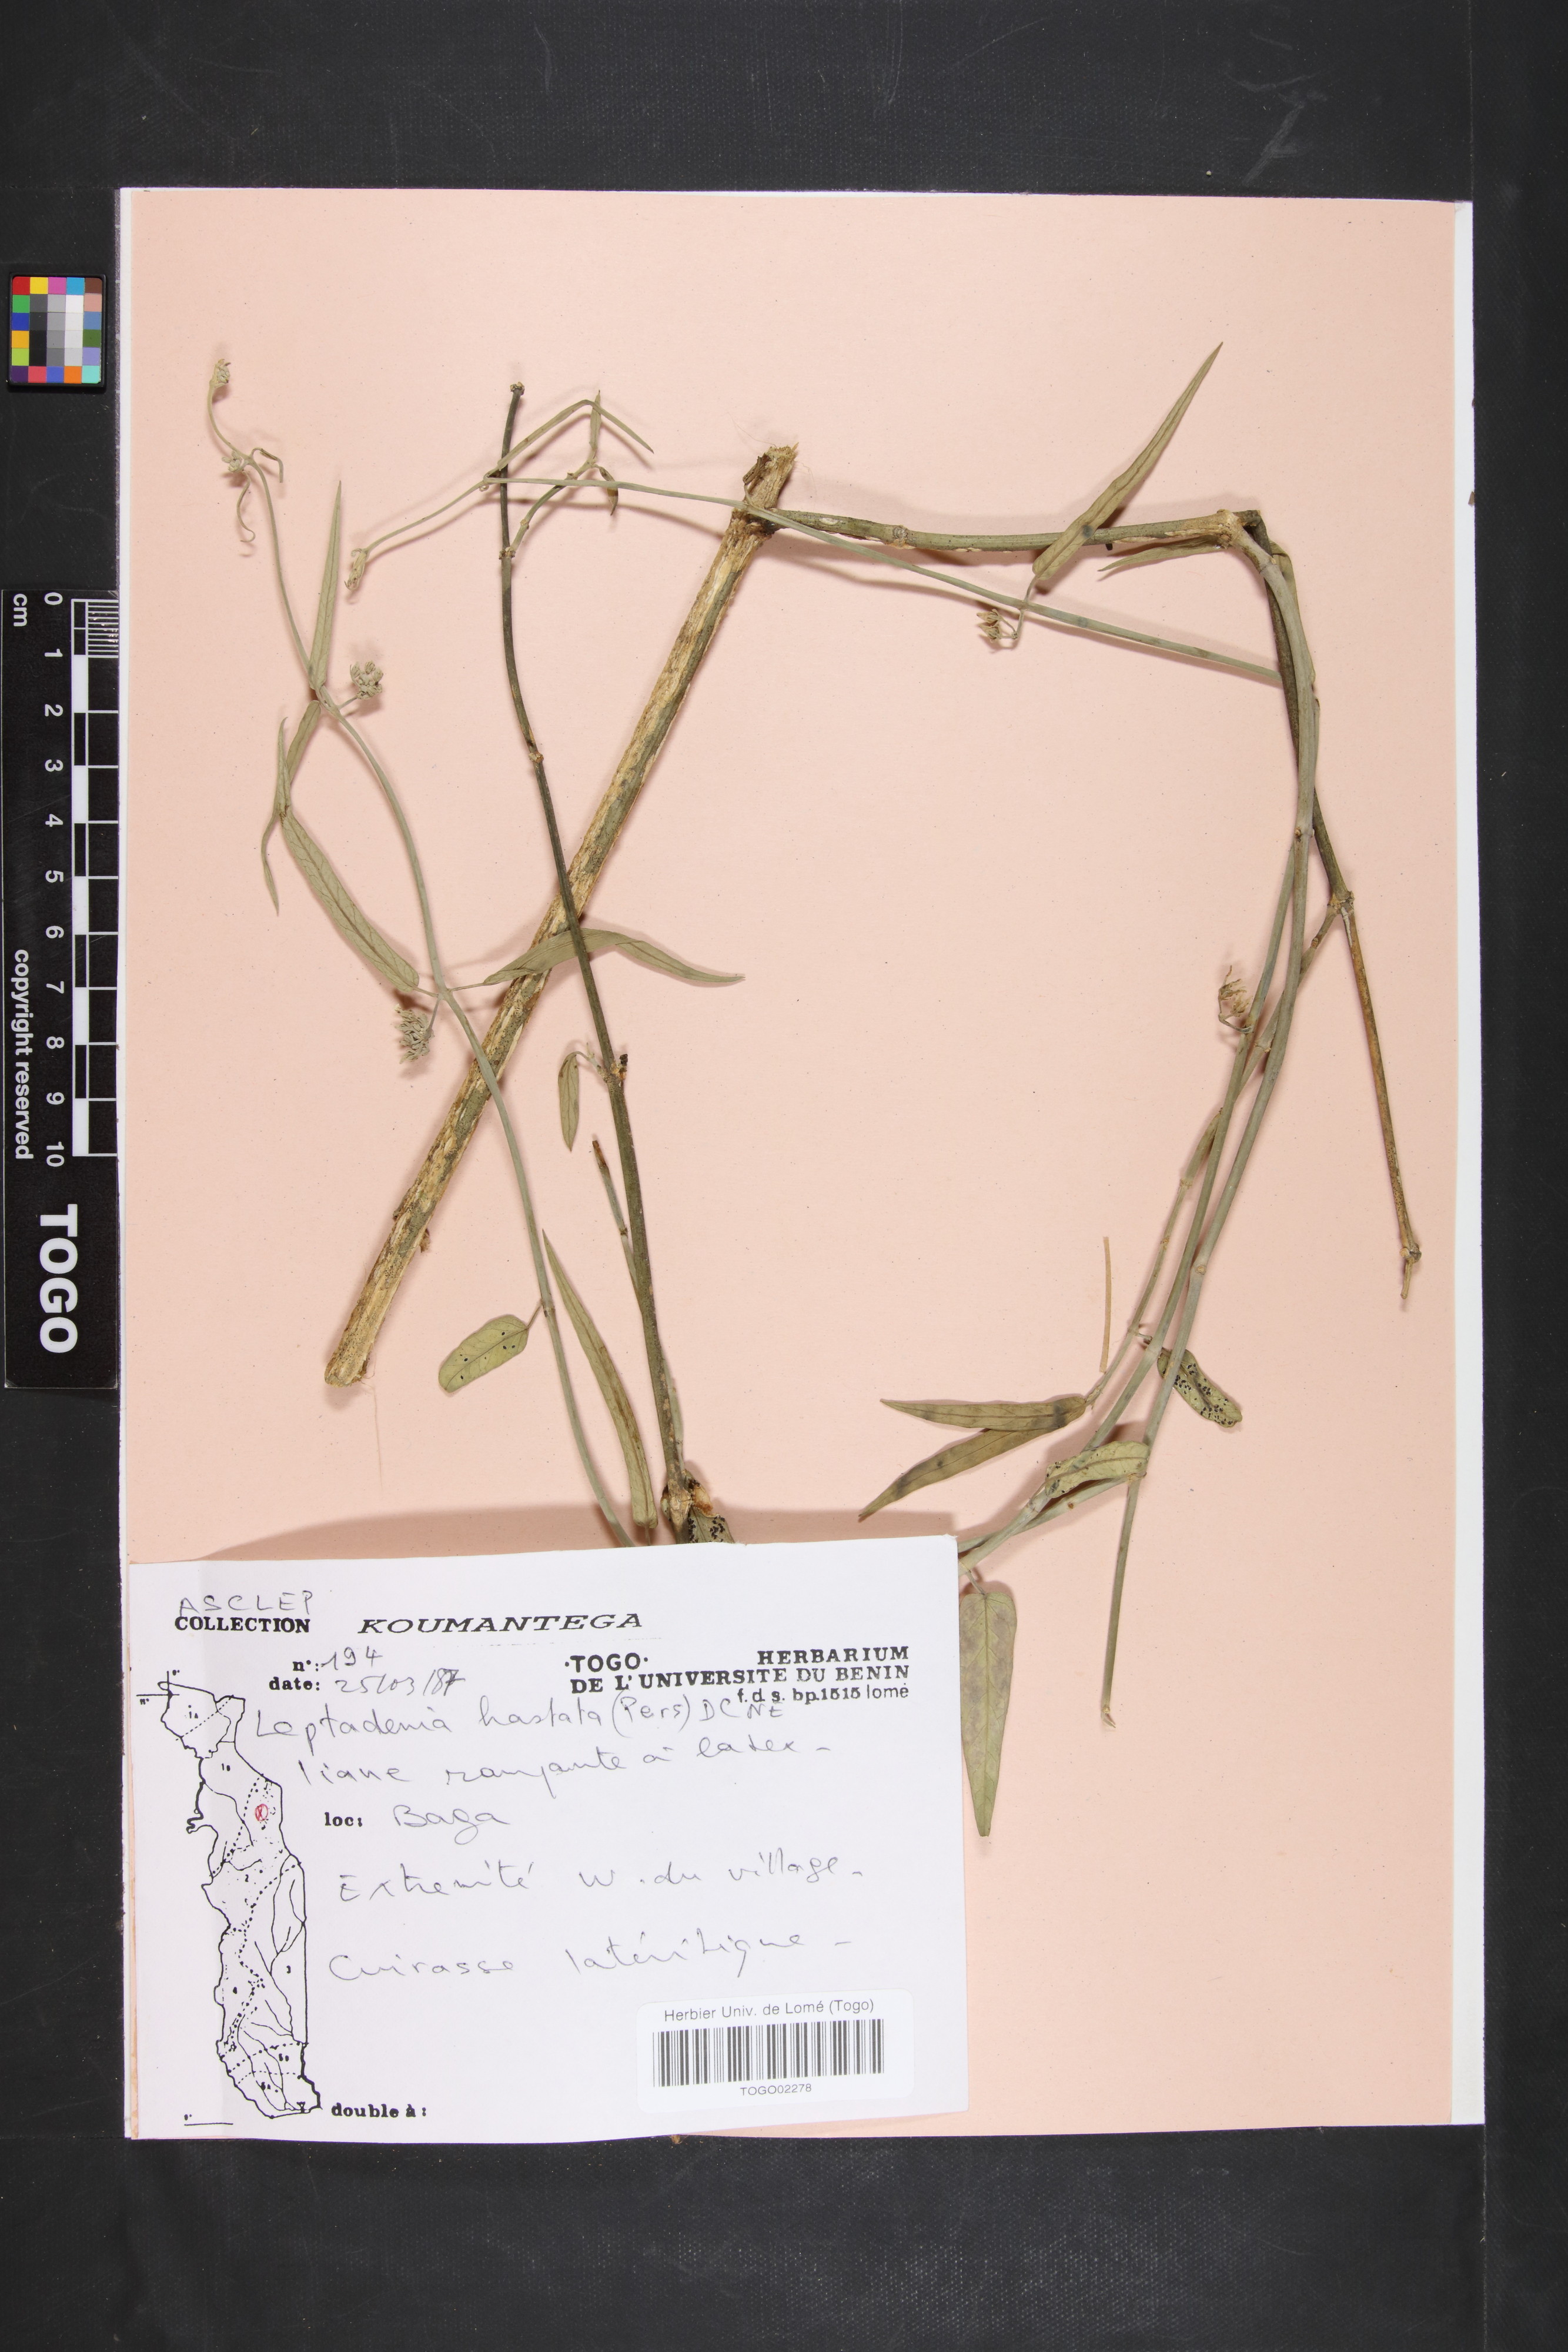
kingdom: Plantae
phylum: Tracheophyta
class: Magnoliopsida
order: Gentianales
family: Apocynaceae
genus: Leptadenia
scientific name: Leptadenia lanceolata
